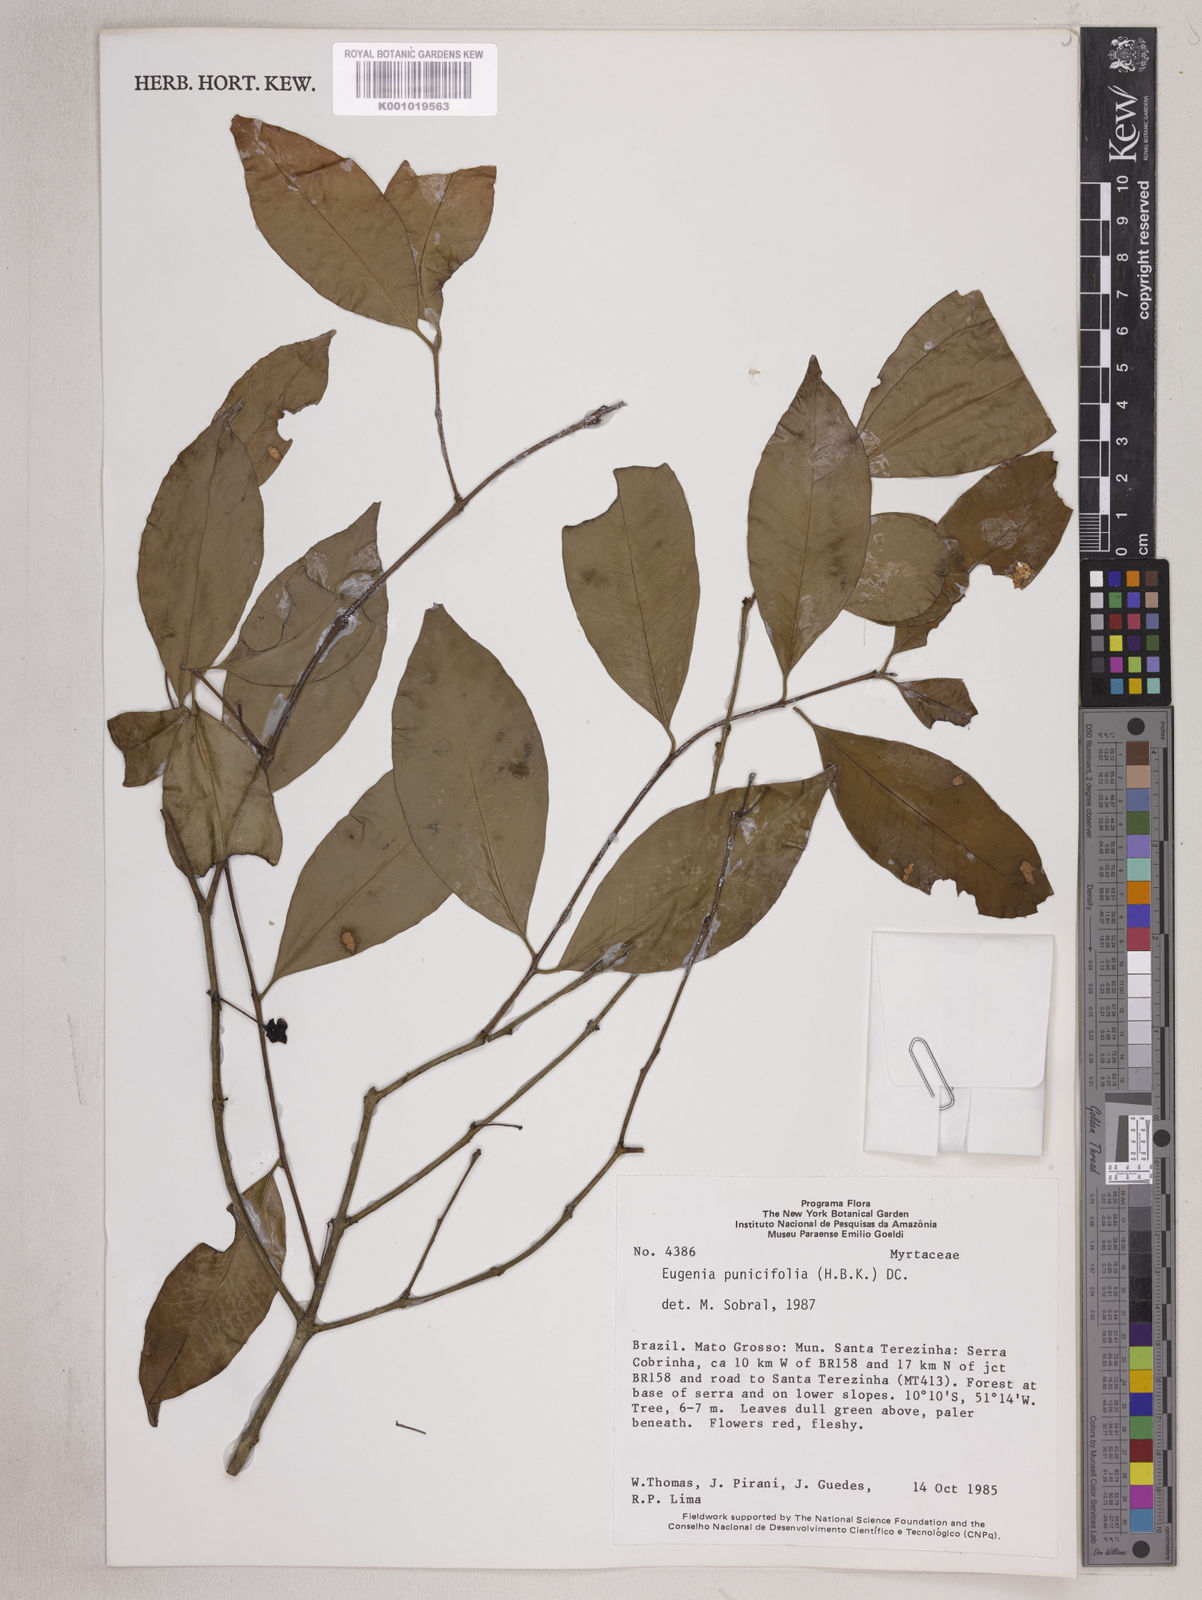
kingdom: Plantae
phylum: Tracheophyta
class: Magnoliopsida
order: Myrtales
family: Myrtaceae
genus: Eugenia
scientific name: Eugenia punicifolia
